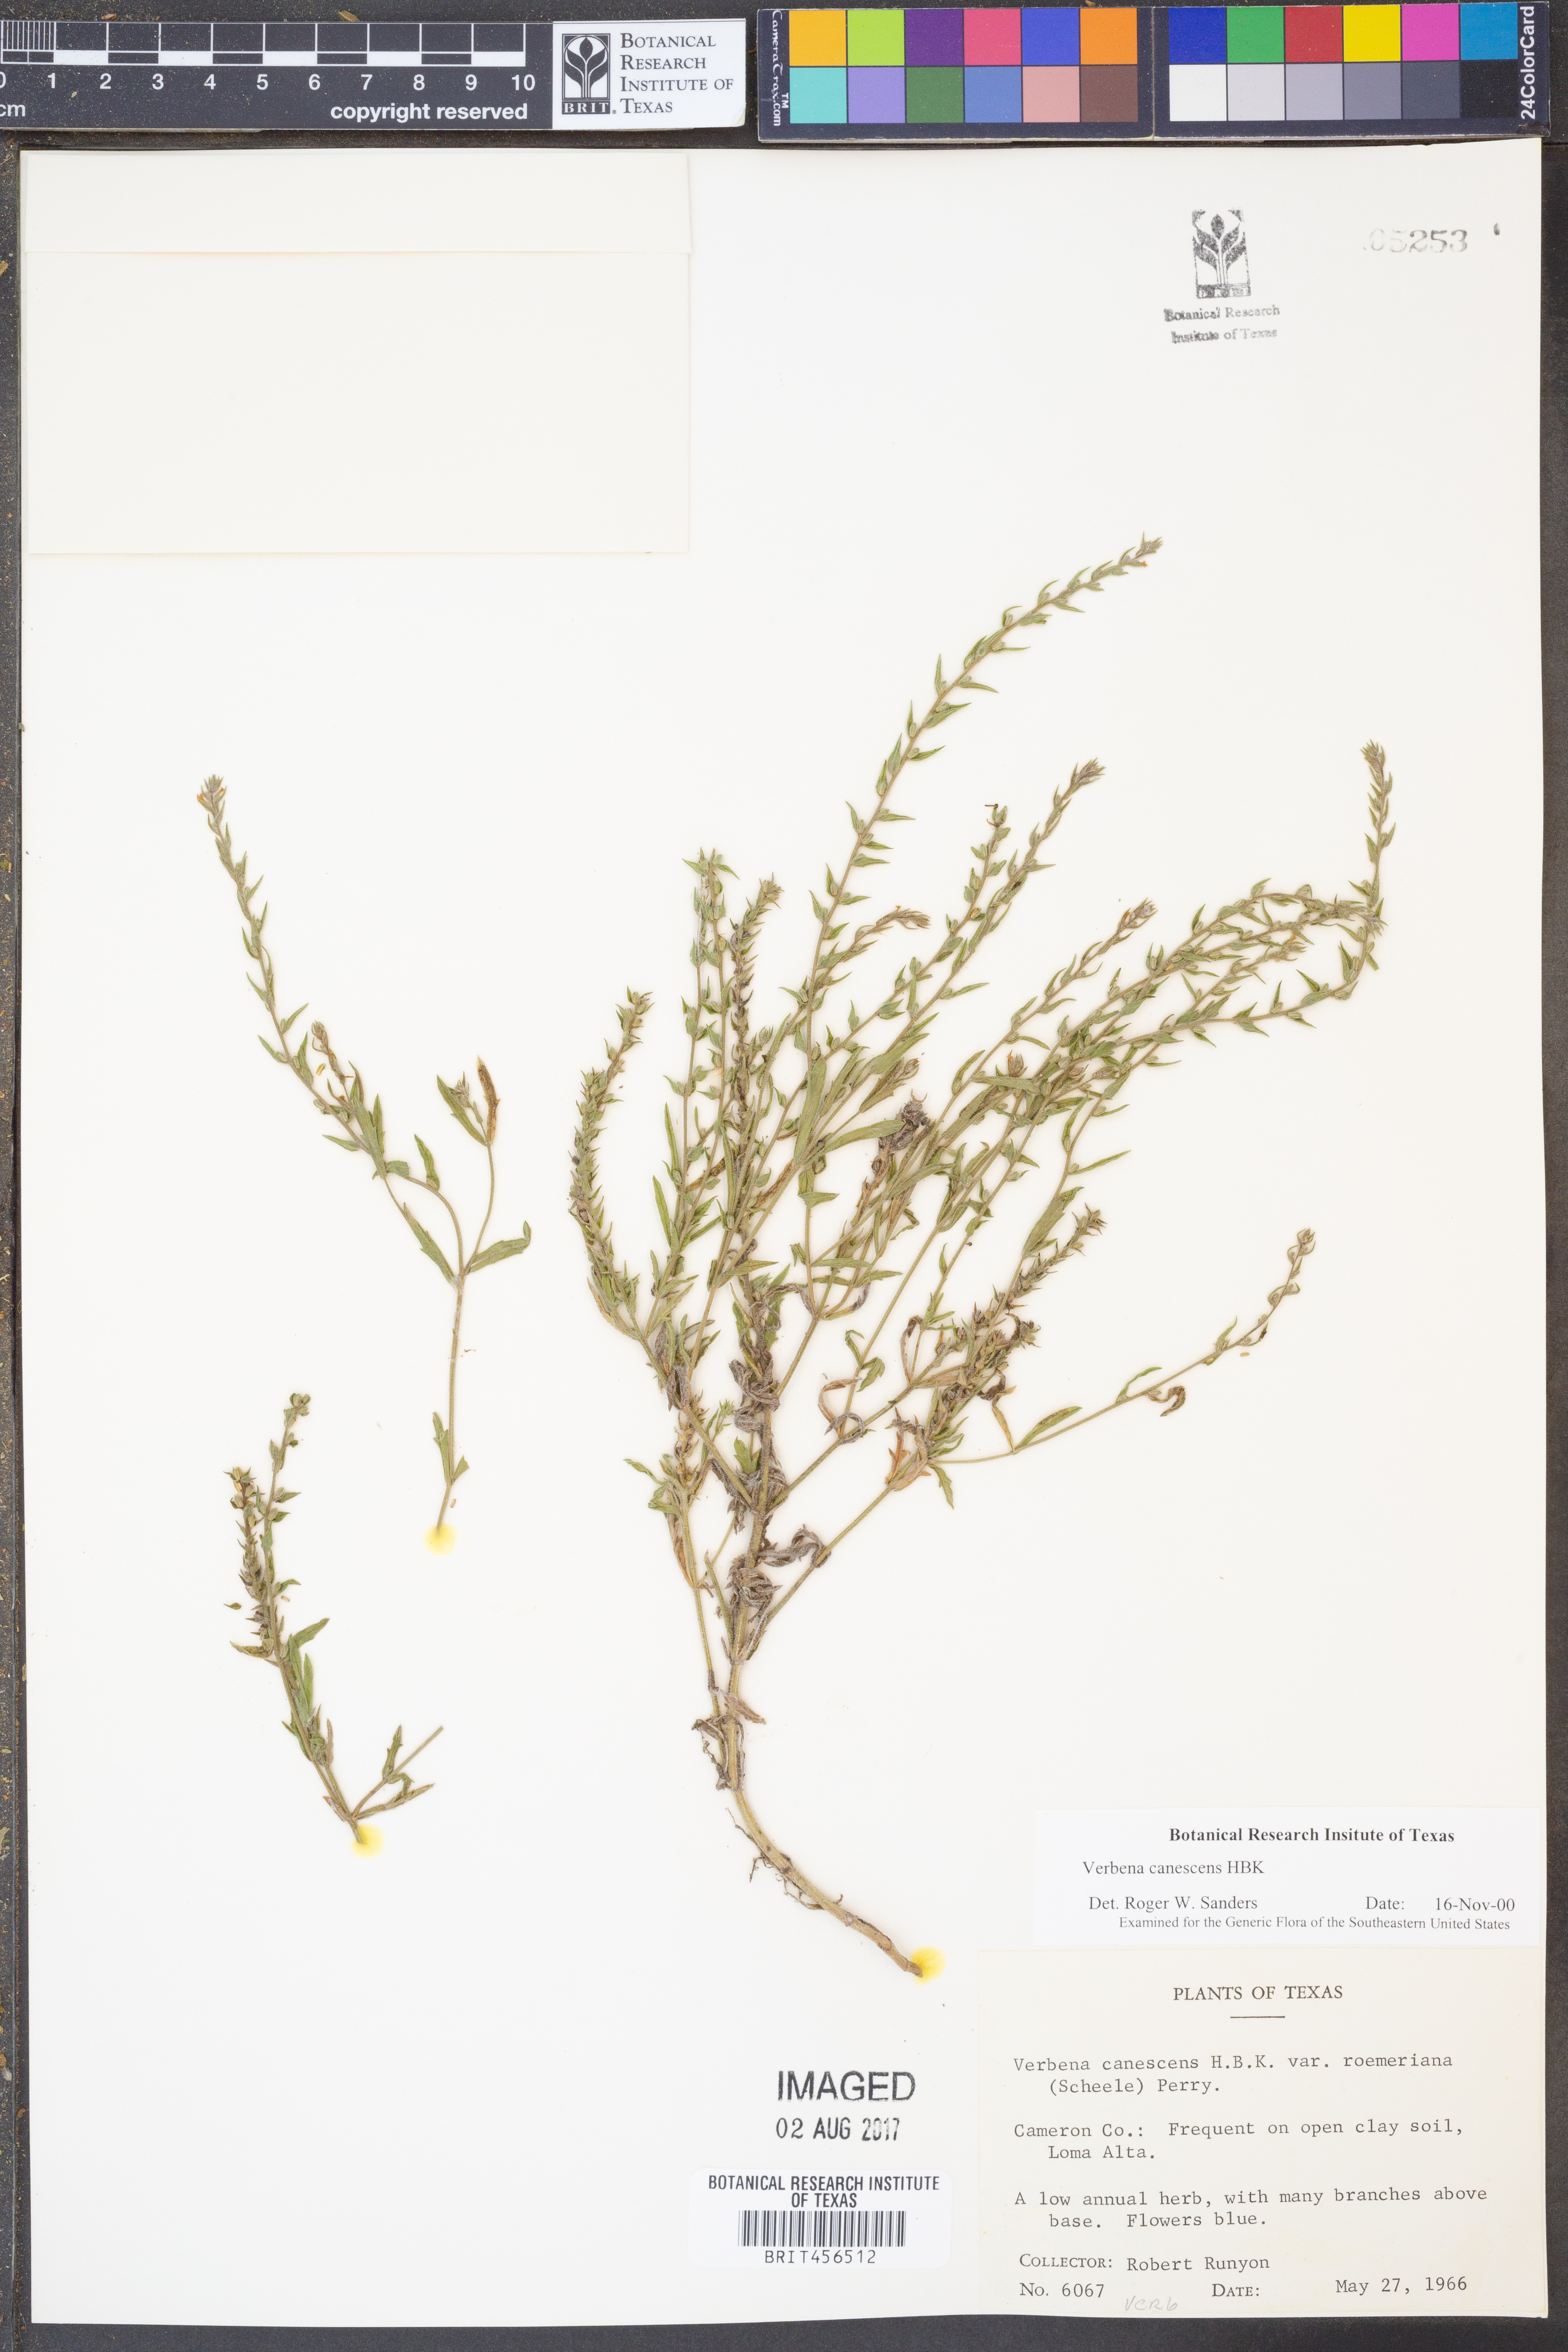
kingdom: Plantae
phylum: Tracheophyta
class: Magnoliopsida
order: Lamiales
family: Verbenaceae
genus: Verbena
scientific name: Verbena canescens
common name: Gray vervain
